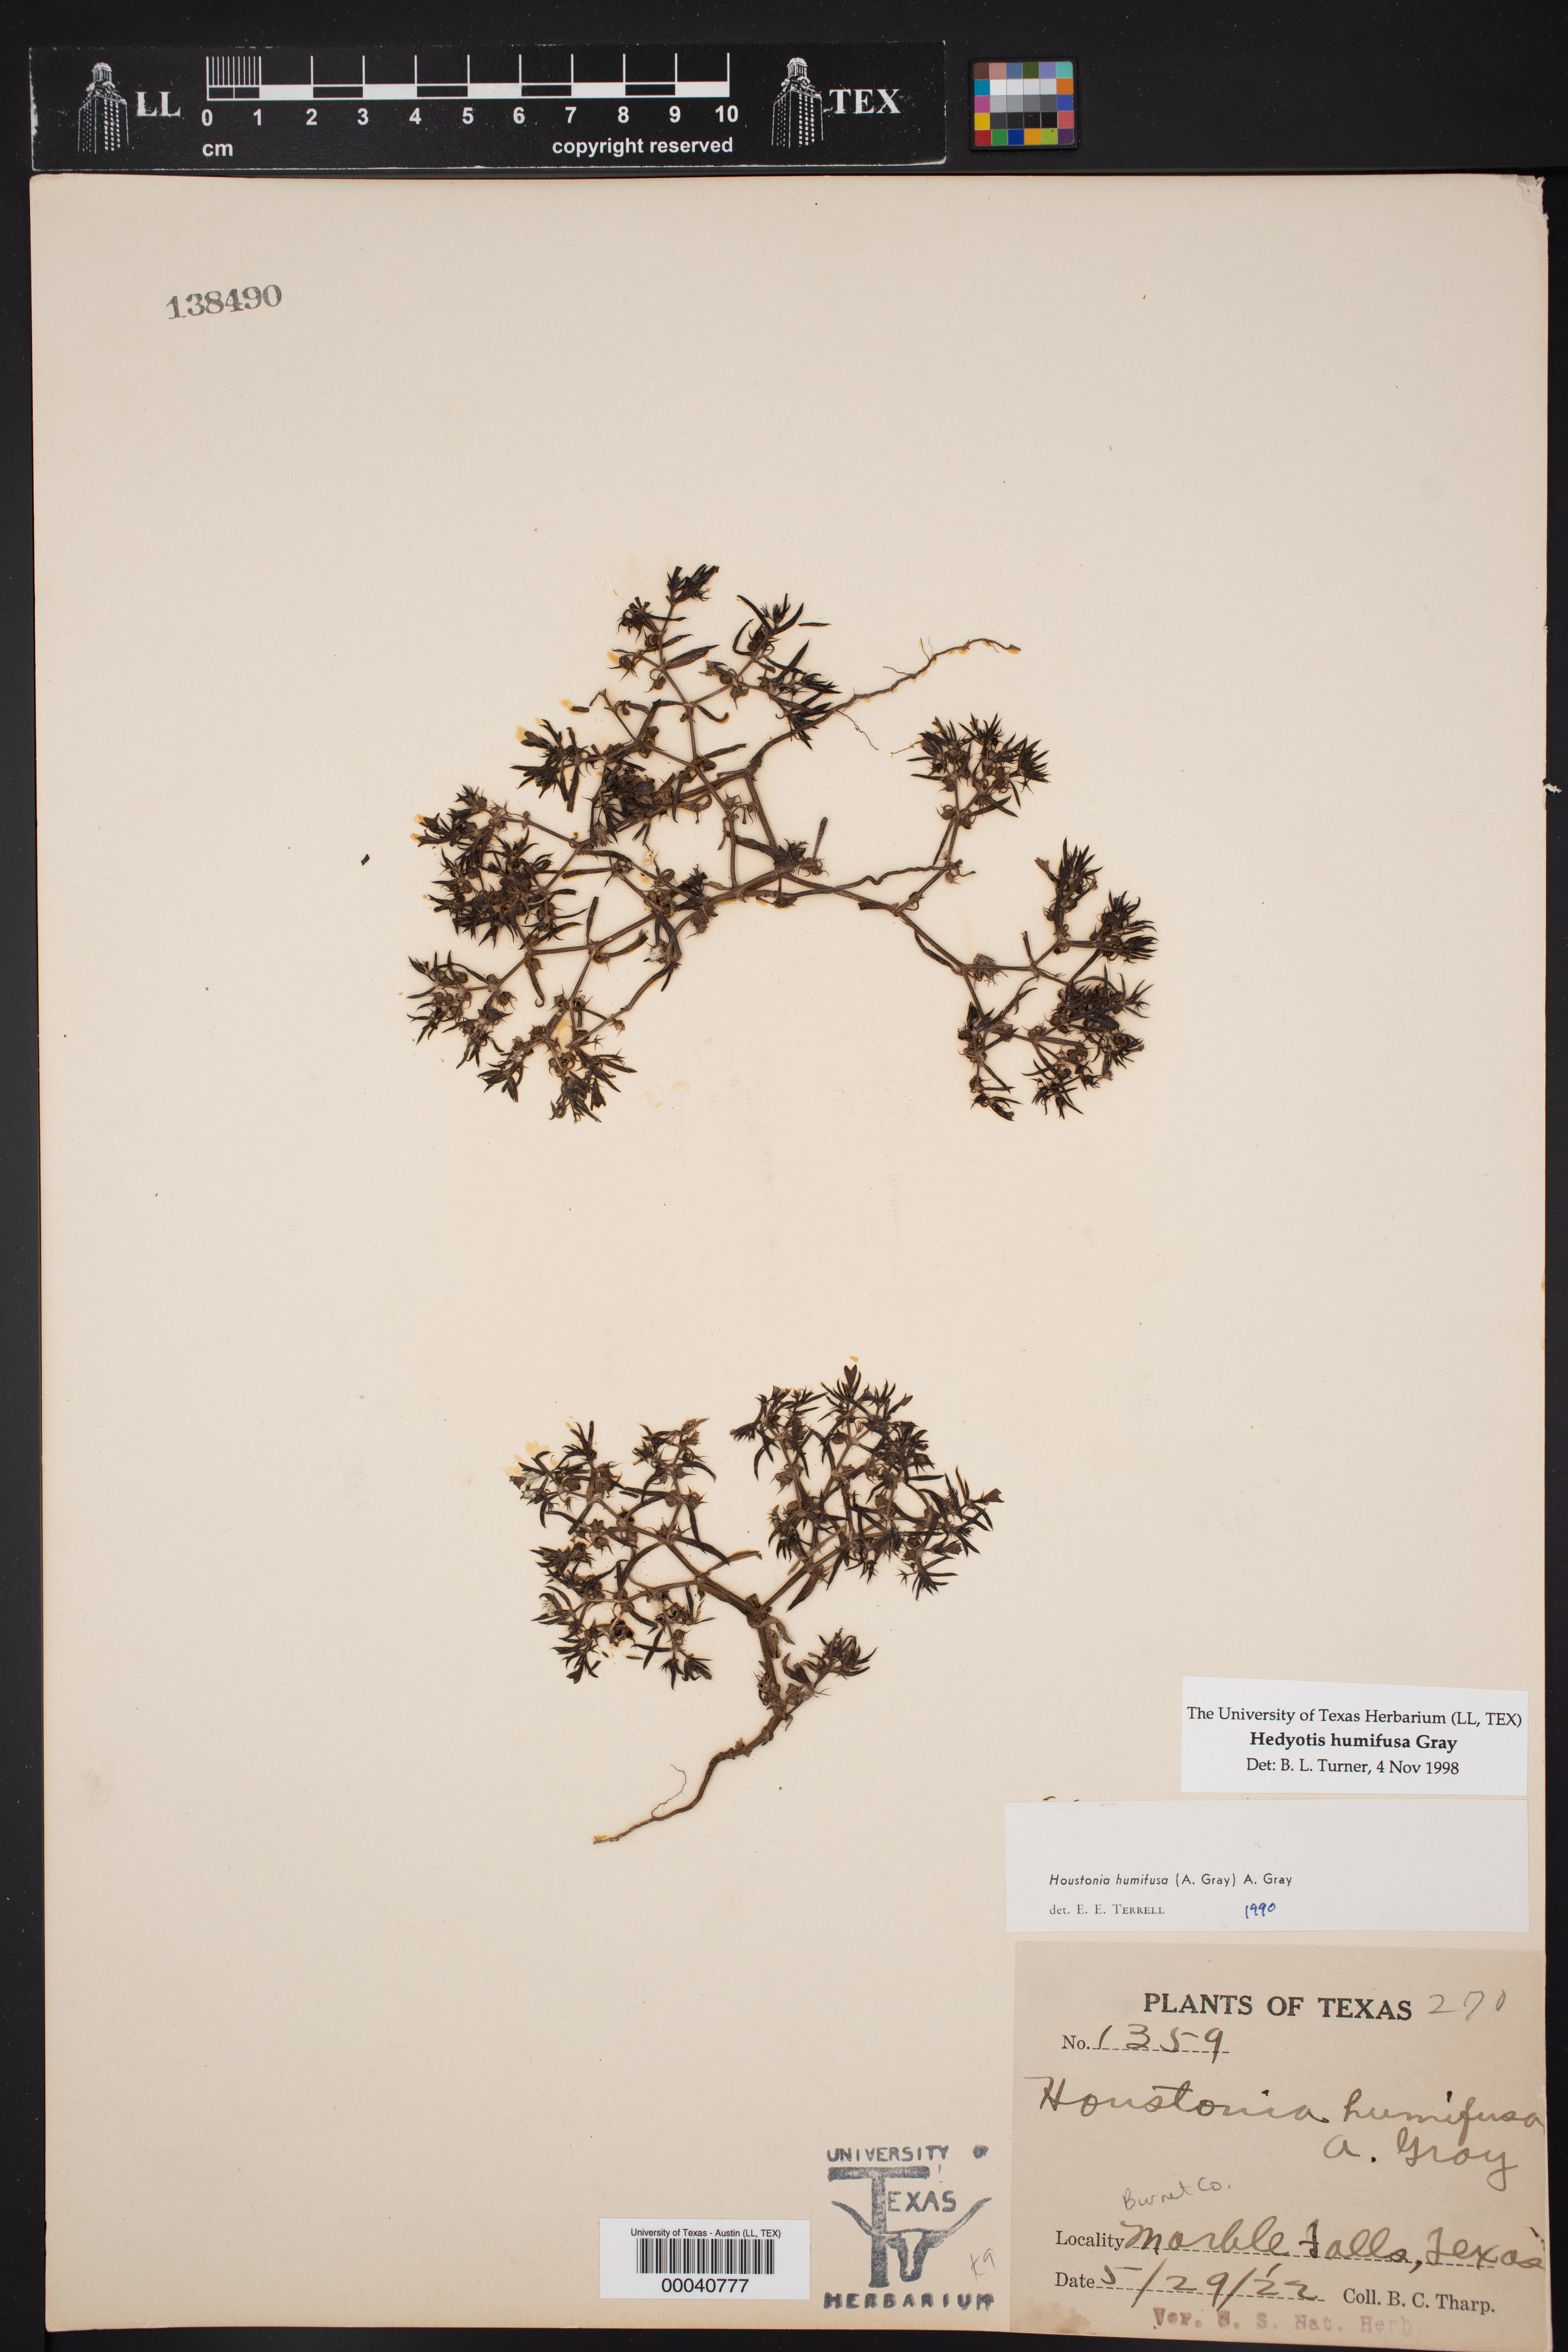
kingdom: Plantae
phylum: Tracheophyta
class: Magnoliopsida
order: Gentianales
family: Rubiaceae
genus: Houstonia
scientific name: Houstonia humifusa
